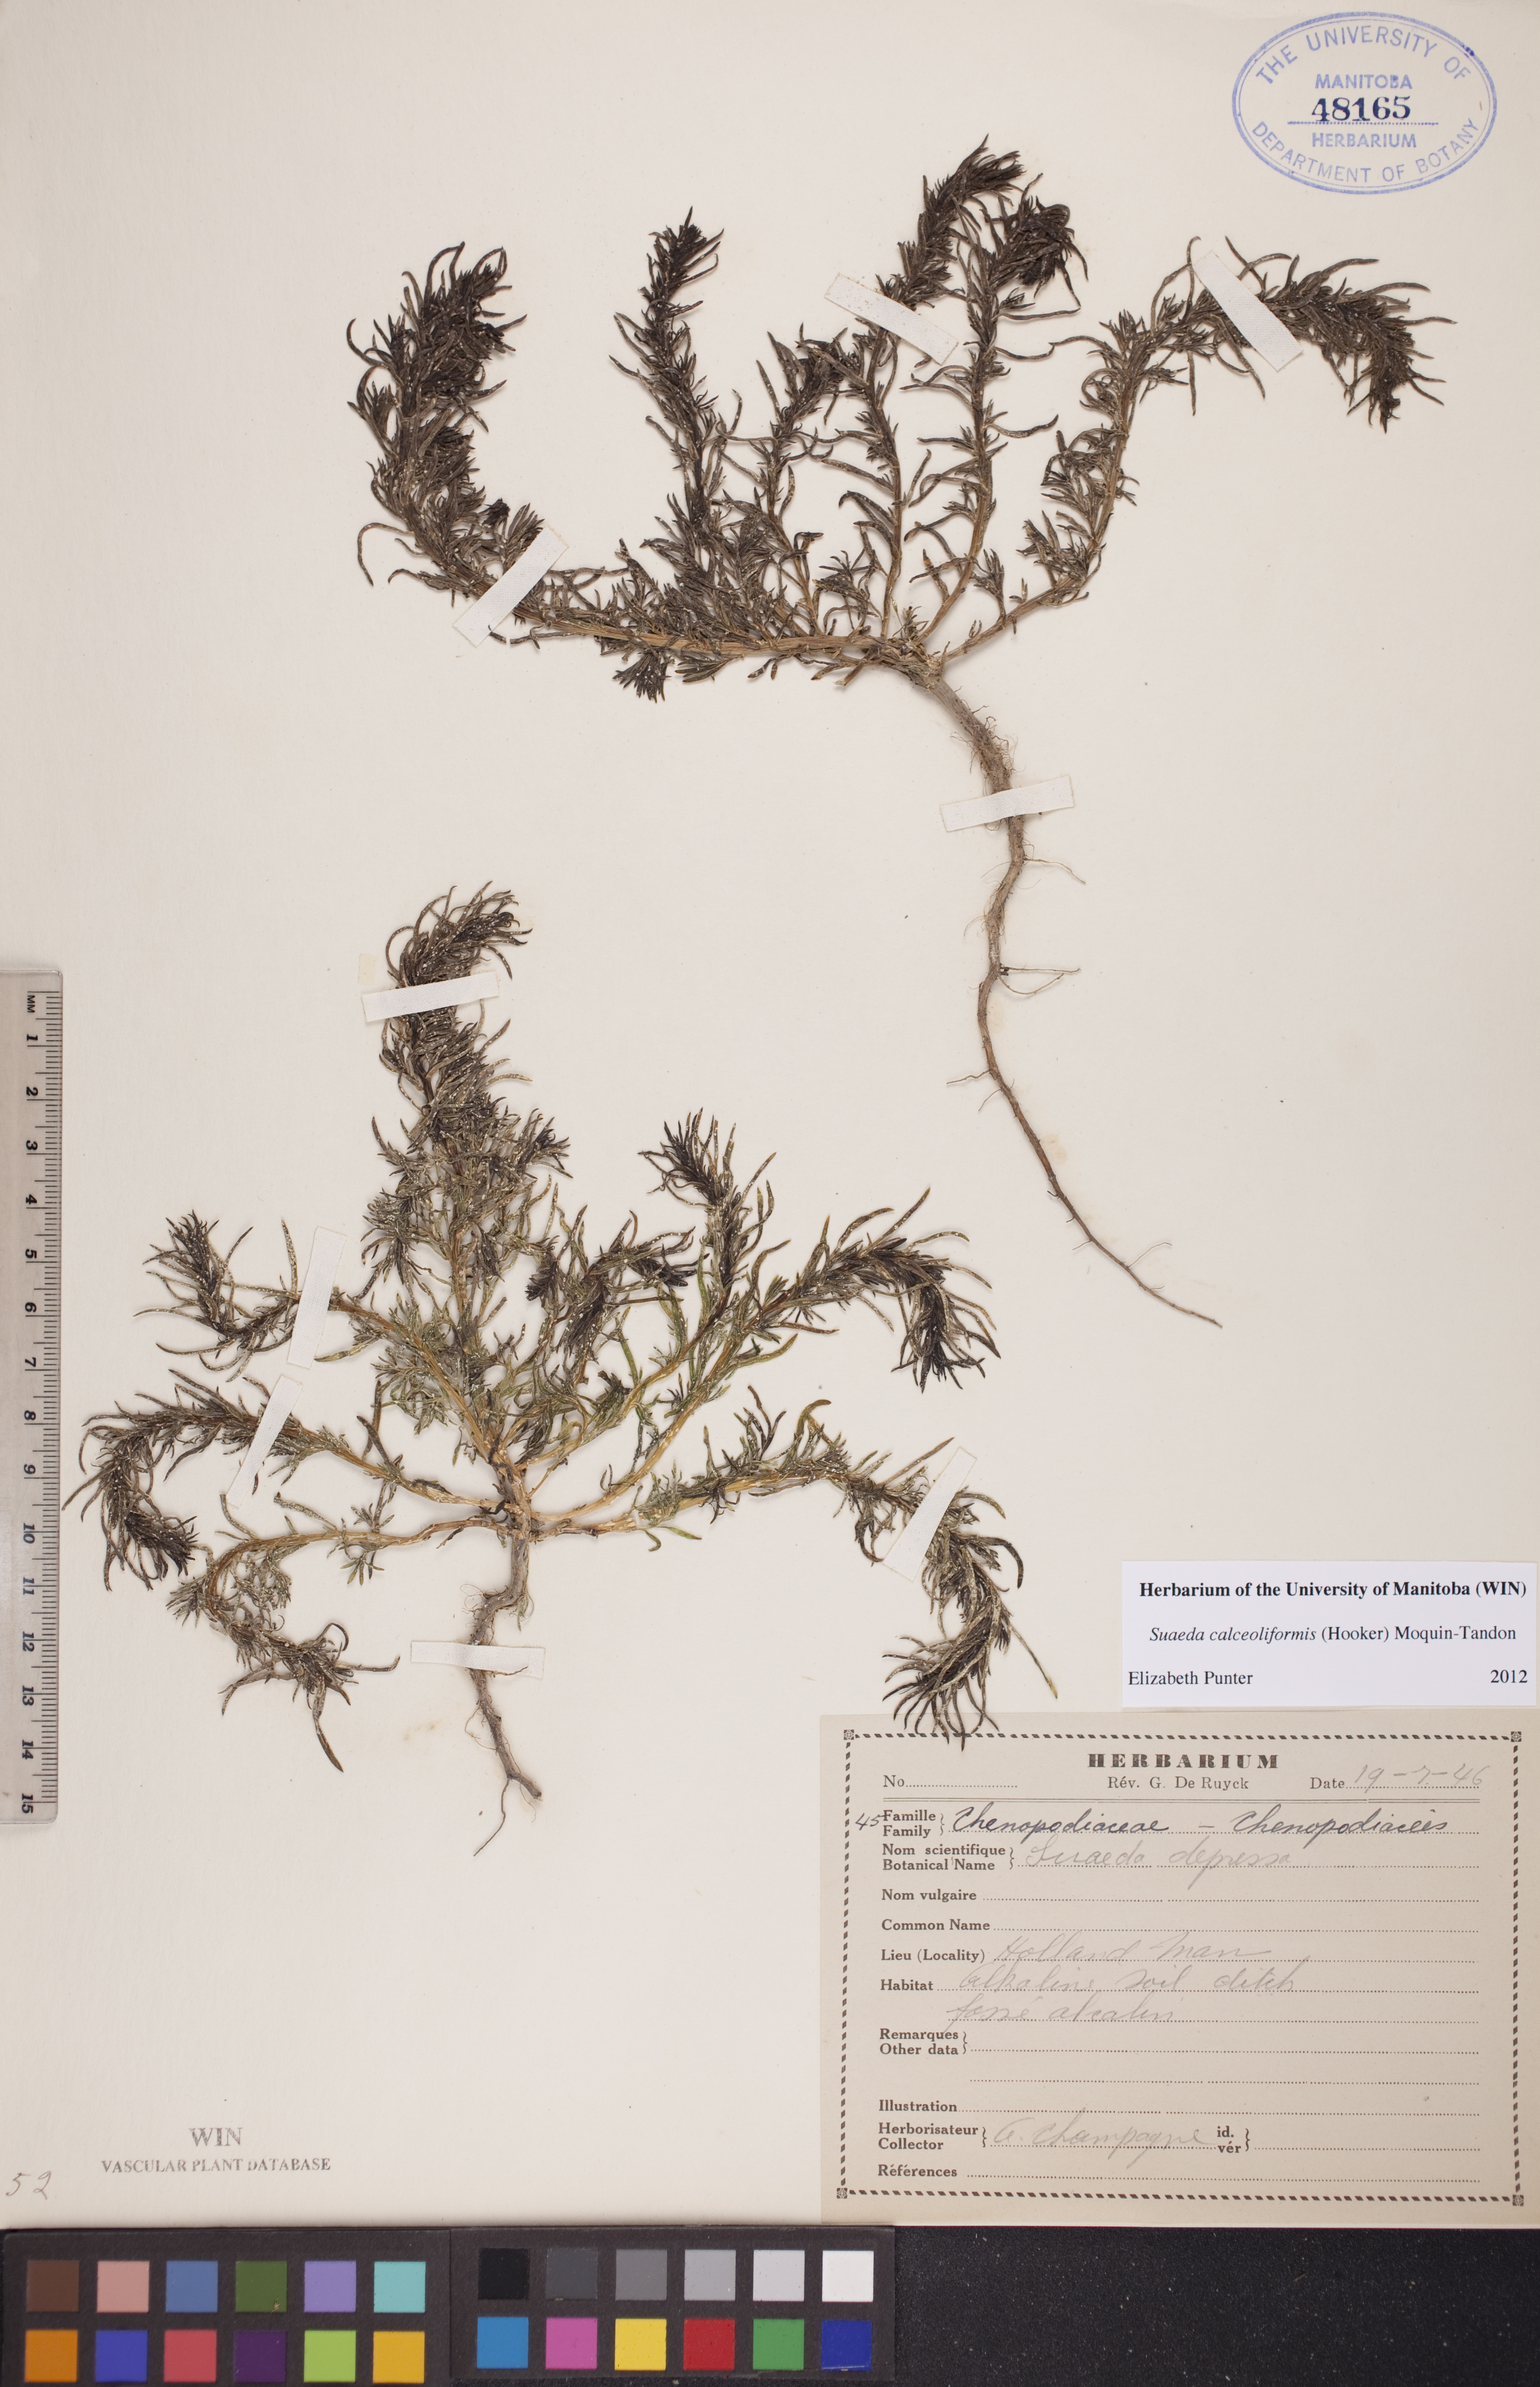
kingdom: Plantae
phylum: Tracheophyta
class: Magnoliopsida
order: Caryophyllales
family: Amaranthaceae
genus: Suaeda
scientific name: Suaeda calceoliformis
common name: Pursh's seepweed
